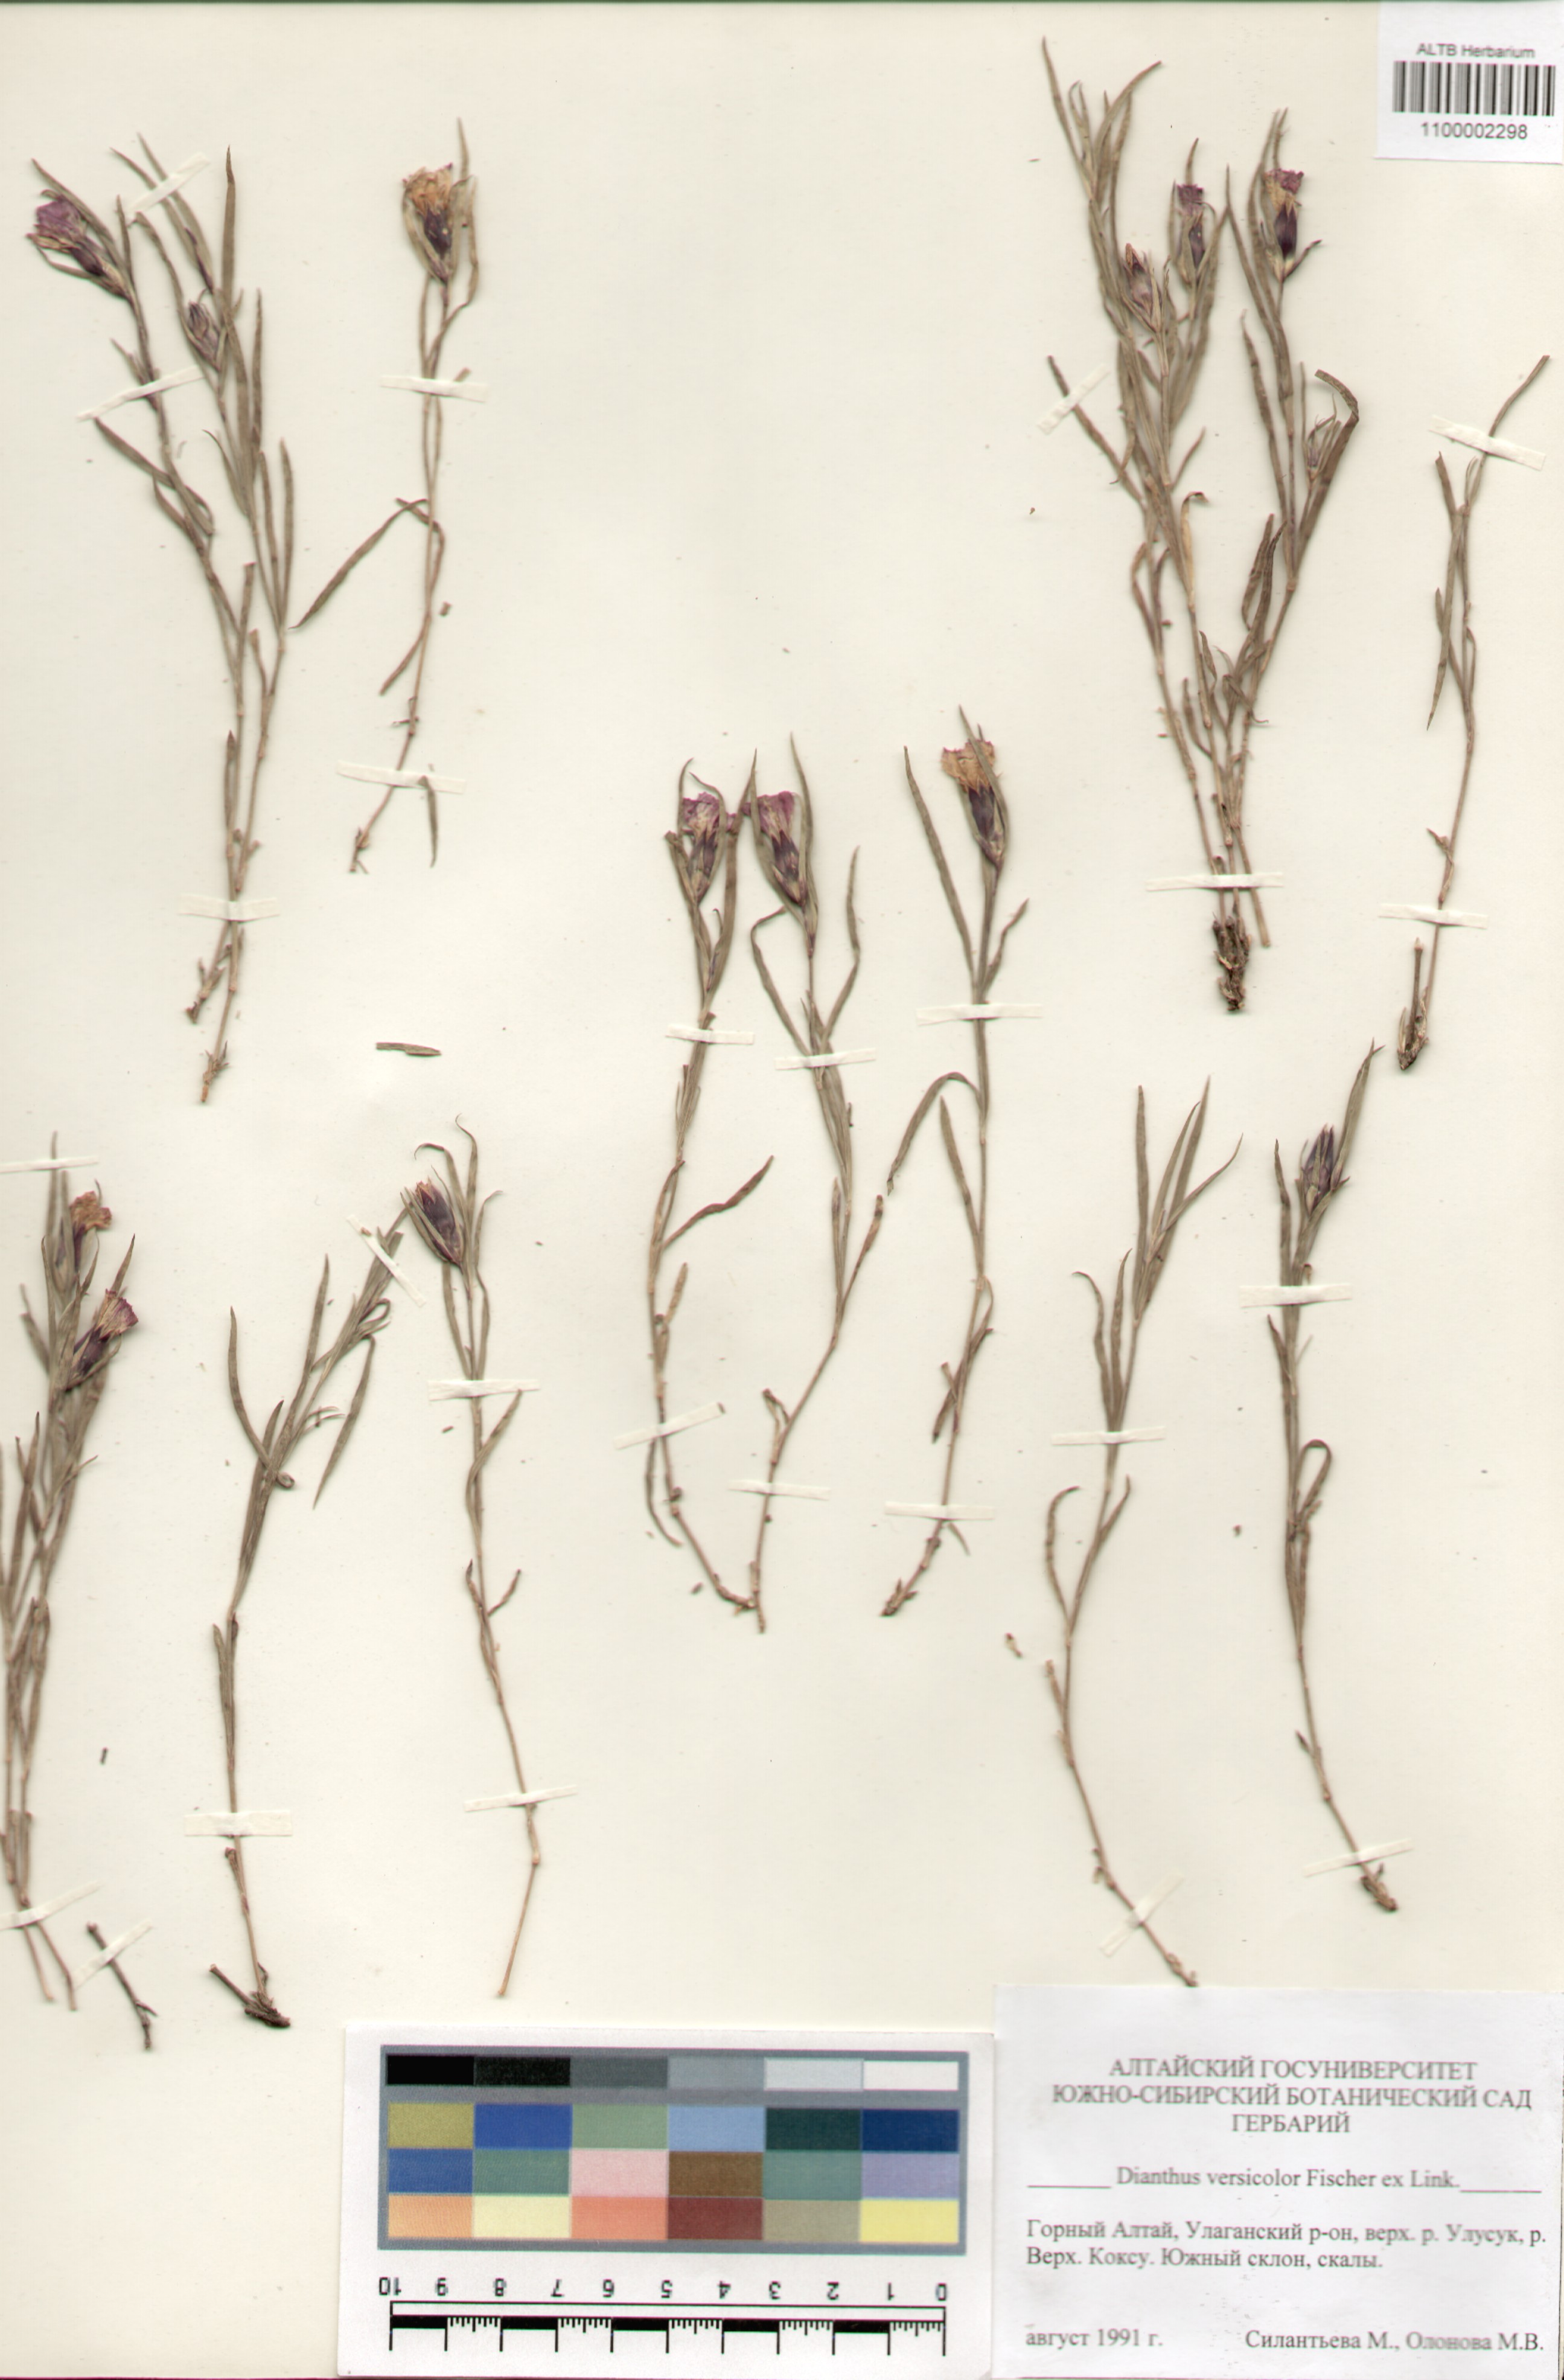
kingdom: Plantae
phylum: Tracheophyta
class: Magnoliopsida
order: Caryophyllales
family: Caryophyllaceae
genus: Dianthus
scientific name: Dianthus chinensis
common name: Rainbow pink
